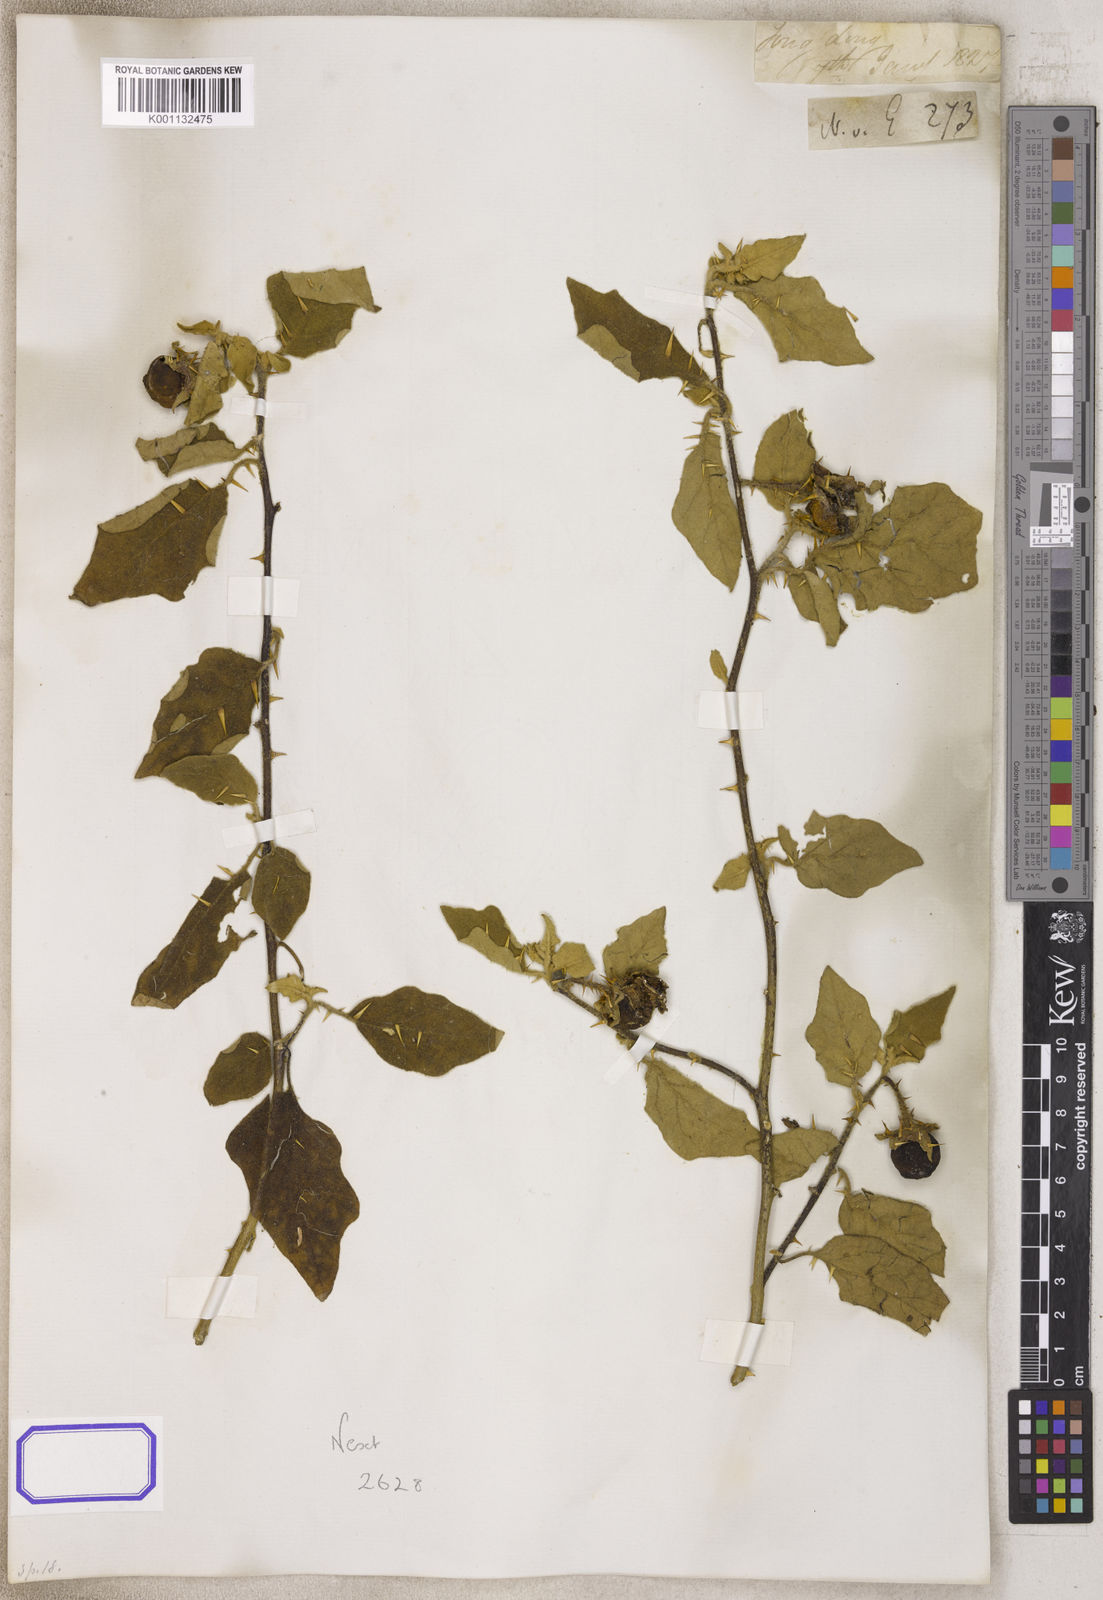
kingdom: Plantae
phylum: Tracheophyta
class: Magnoliopsida
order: Solanales
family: Solanaceae
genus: Solanum
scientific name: Solanum
